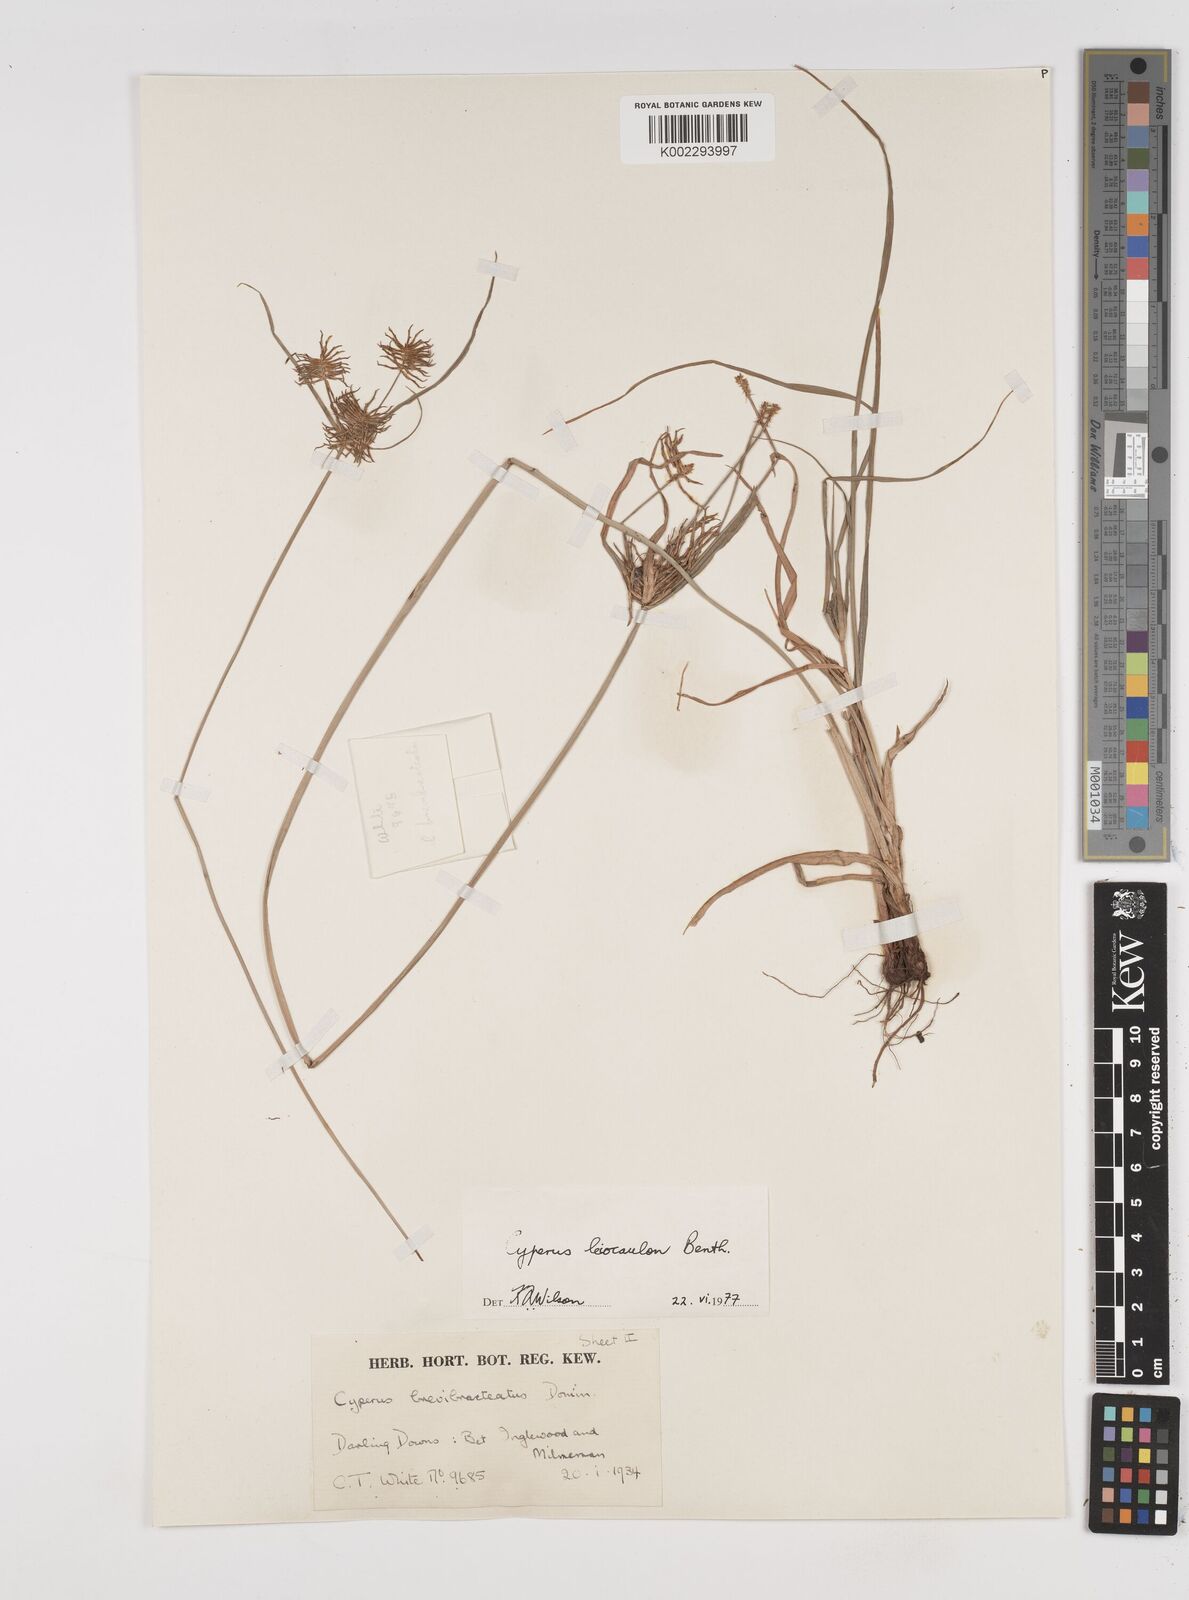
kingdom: Plantae
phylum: Tracheophyta
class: Liliopsida
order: Poales
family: Cyperaceae
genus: Cyperus
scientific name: Cyperus leiocaulon
